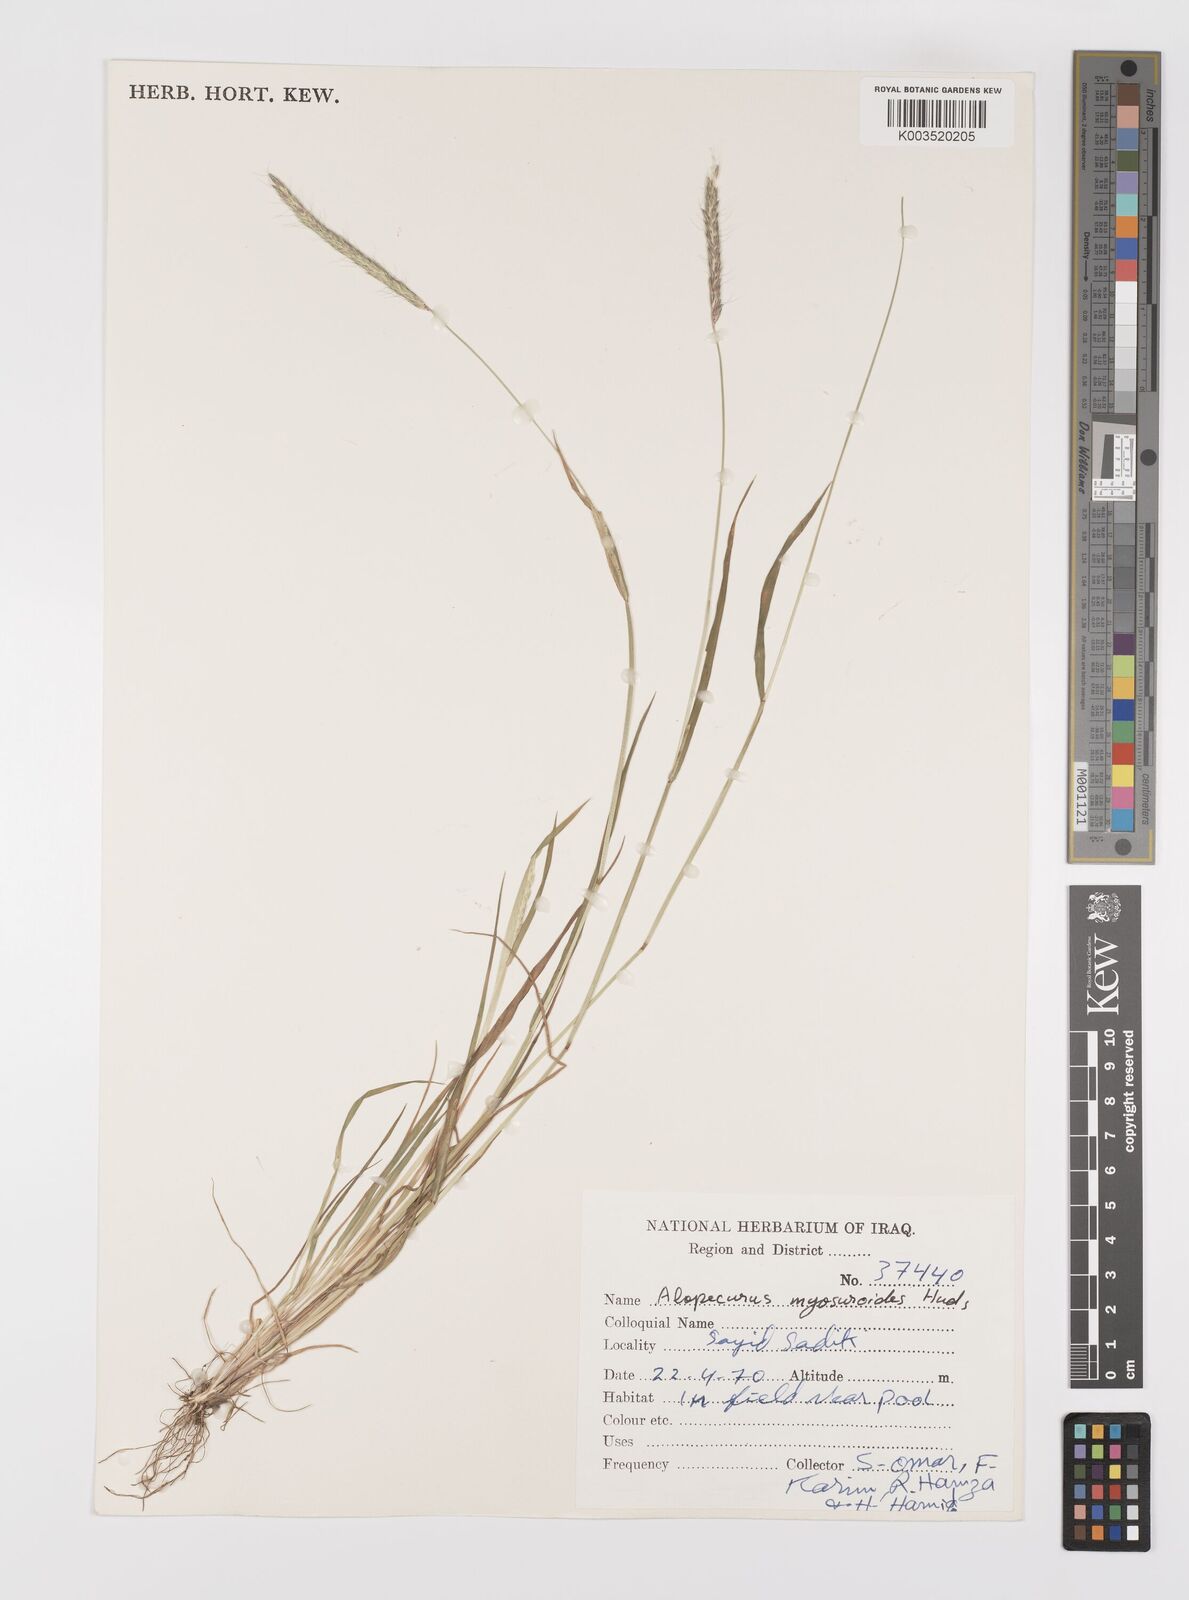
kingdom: Plantae
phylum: Tracheophyta
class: Liliopsida
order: Poales
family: Poaceae
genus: Alopecurus
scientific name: Alopecurus myosuroides
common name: Black-grass
